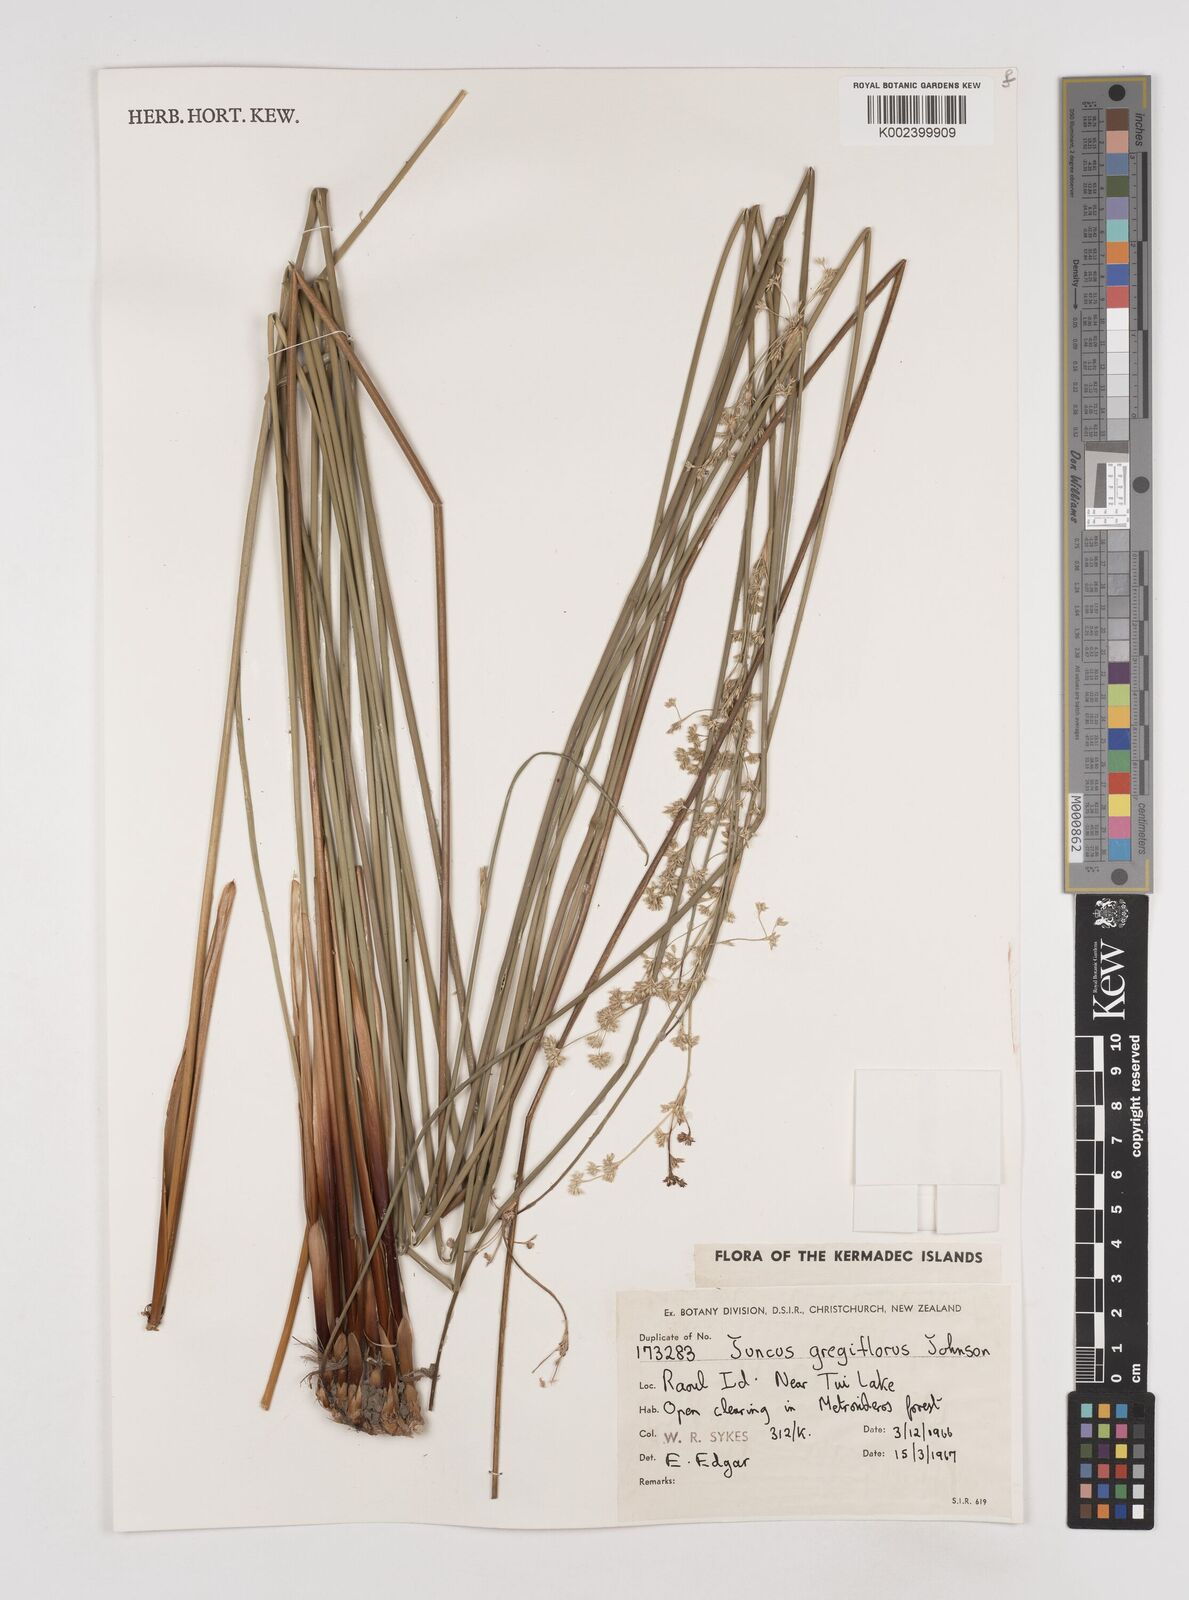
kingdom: Plantae
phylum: Tracheophyta
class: Liliopsida
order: Poales
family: Juncaceae
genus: Juncus
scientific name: Juncus edgariae
